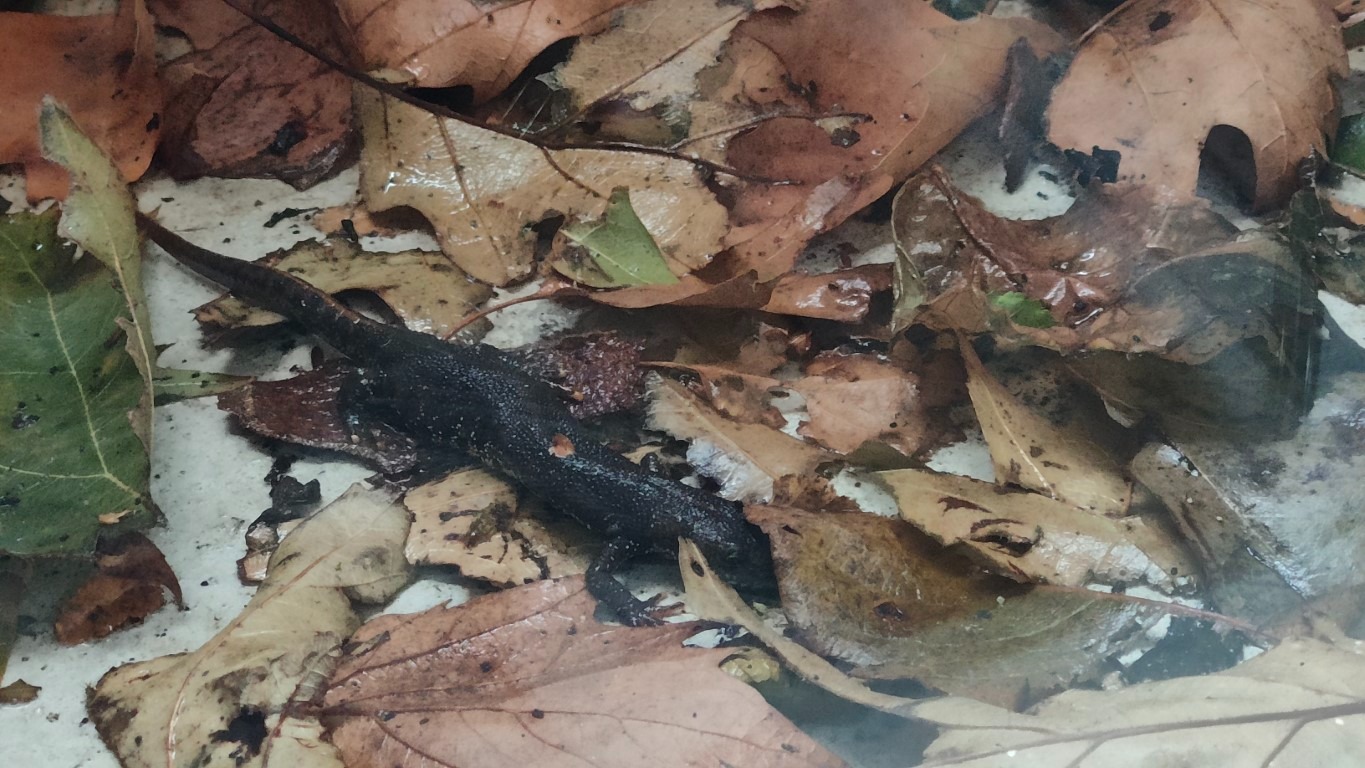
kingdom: Animalia
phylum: Chordata
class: Amphibia
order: Caudata
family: Salamandridae
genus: Triturus
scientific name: Triturus cristatus
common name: Stor vandsalamander
